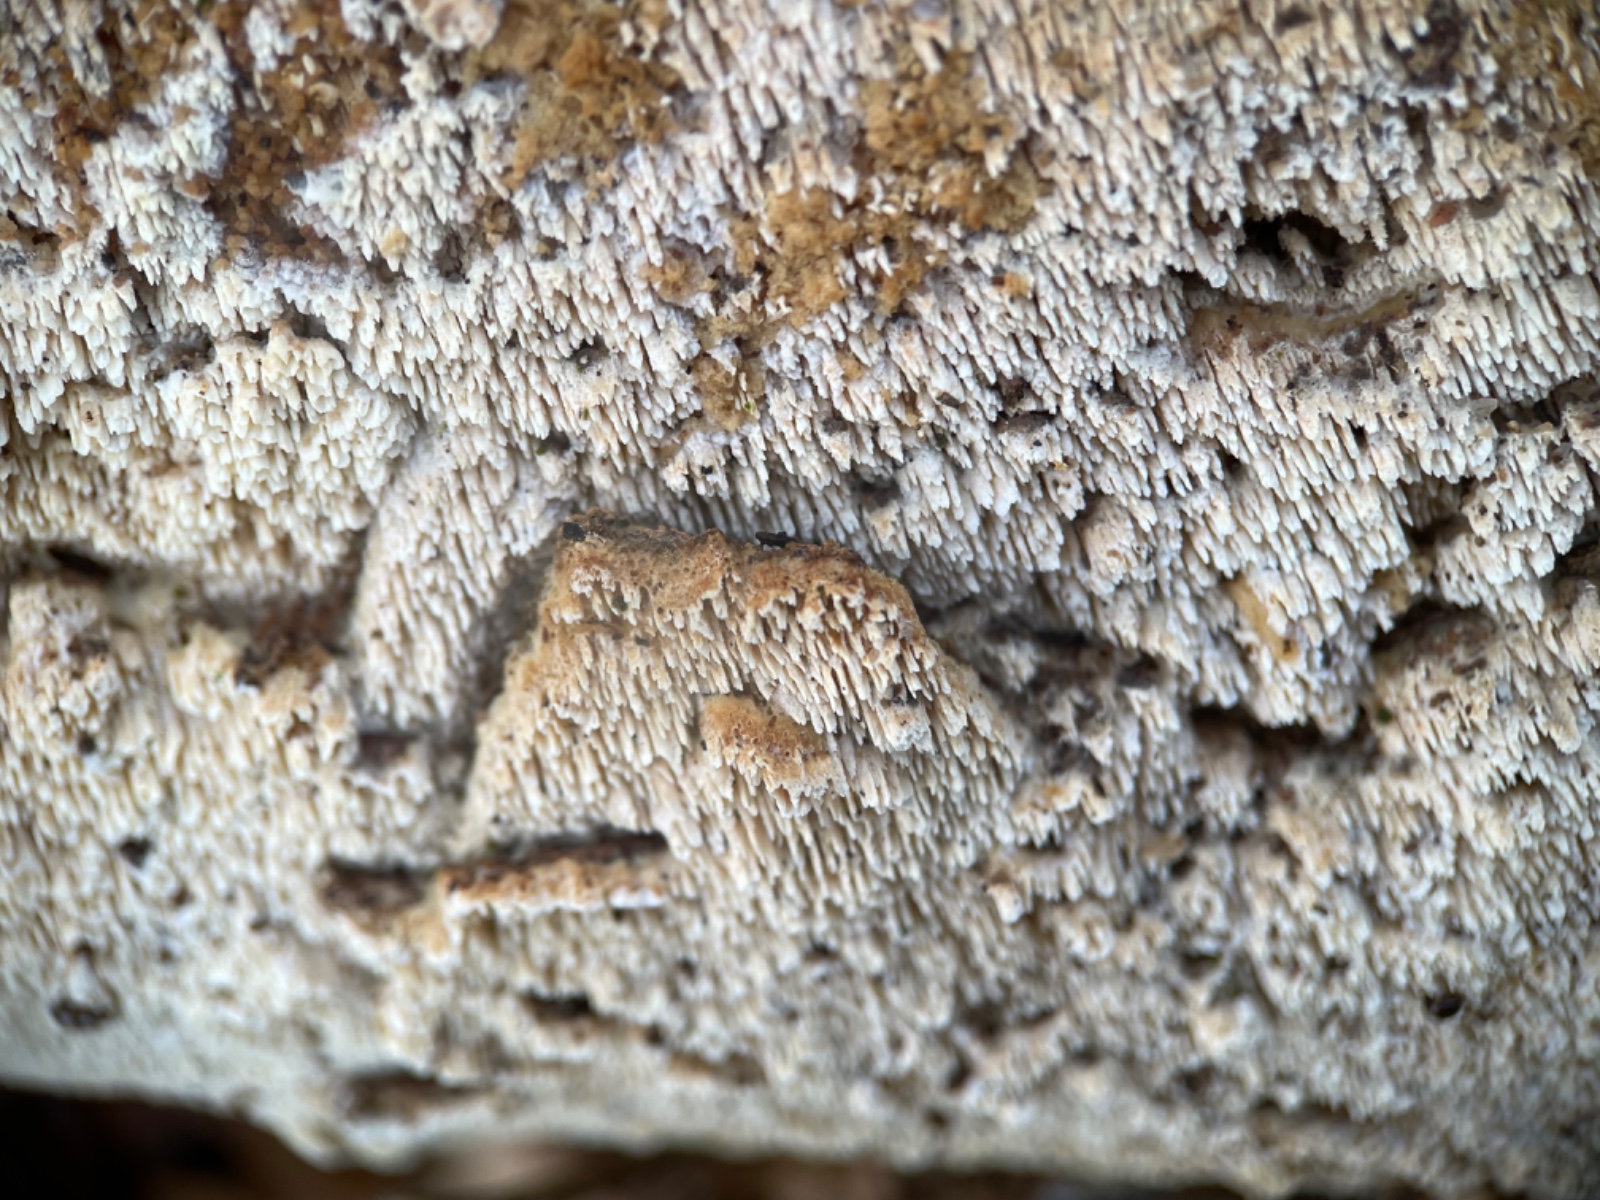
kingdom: Fungi
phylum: Basidiomycota
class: Agaricomycetes
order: Corticiales
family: Corticiaceae
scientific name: Corticiaceae
